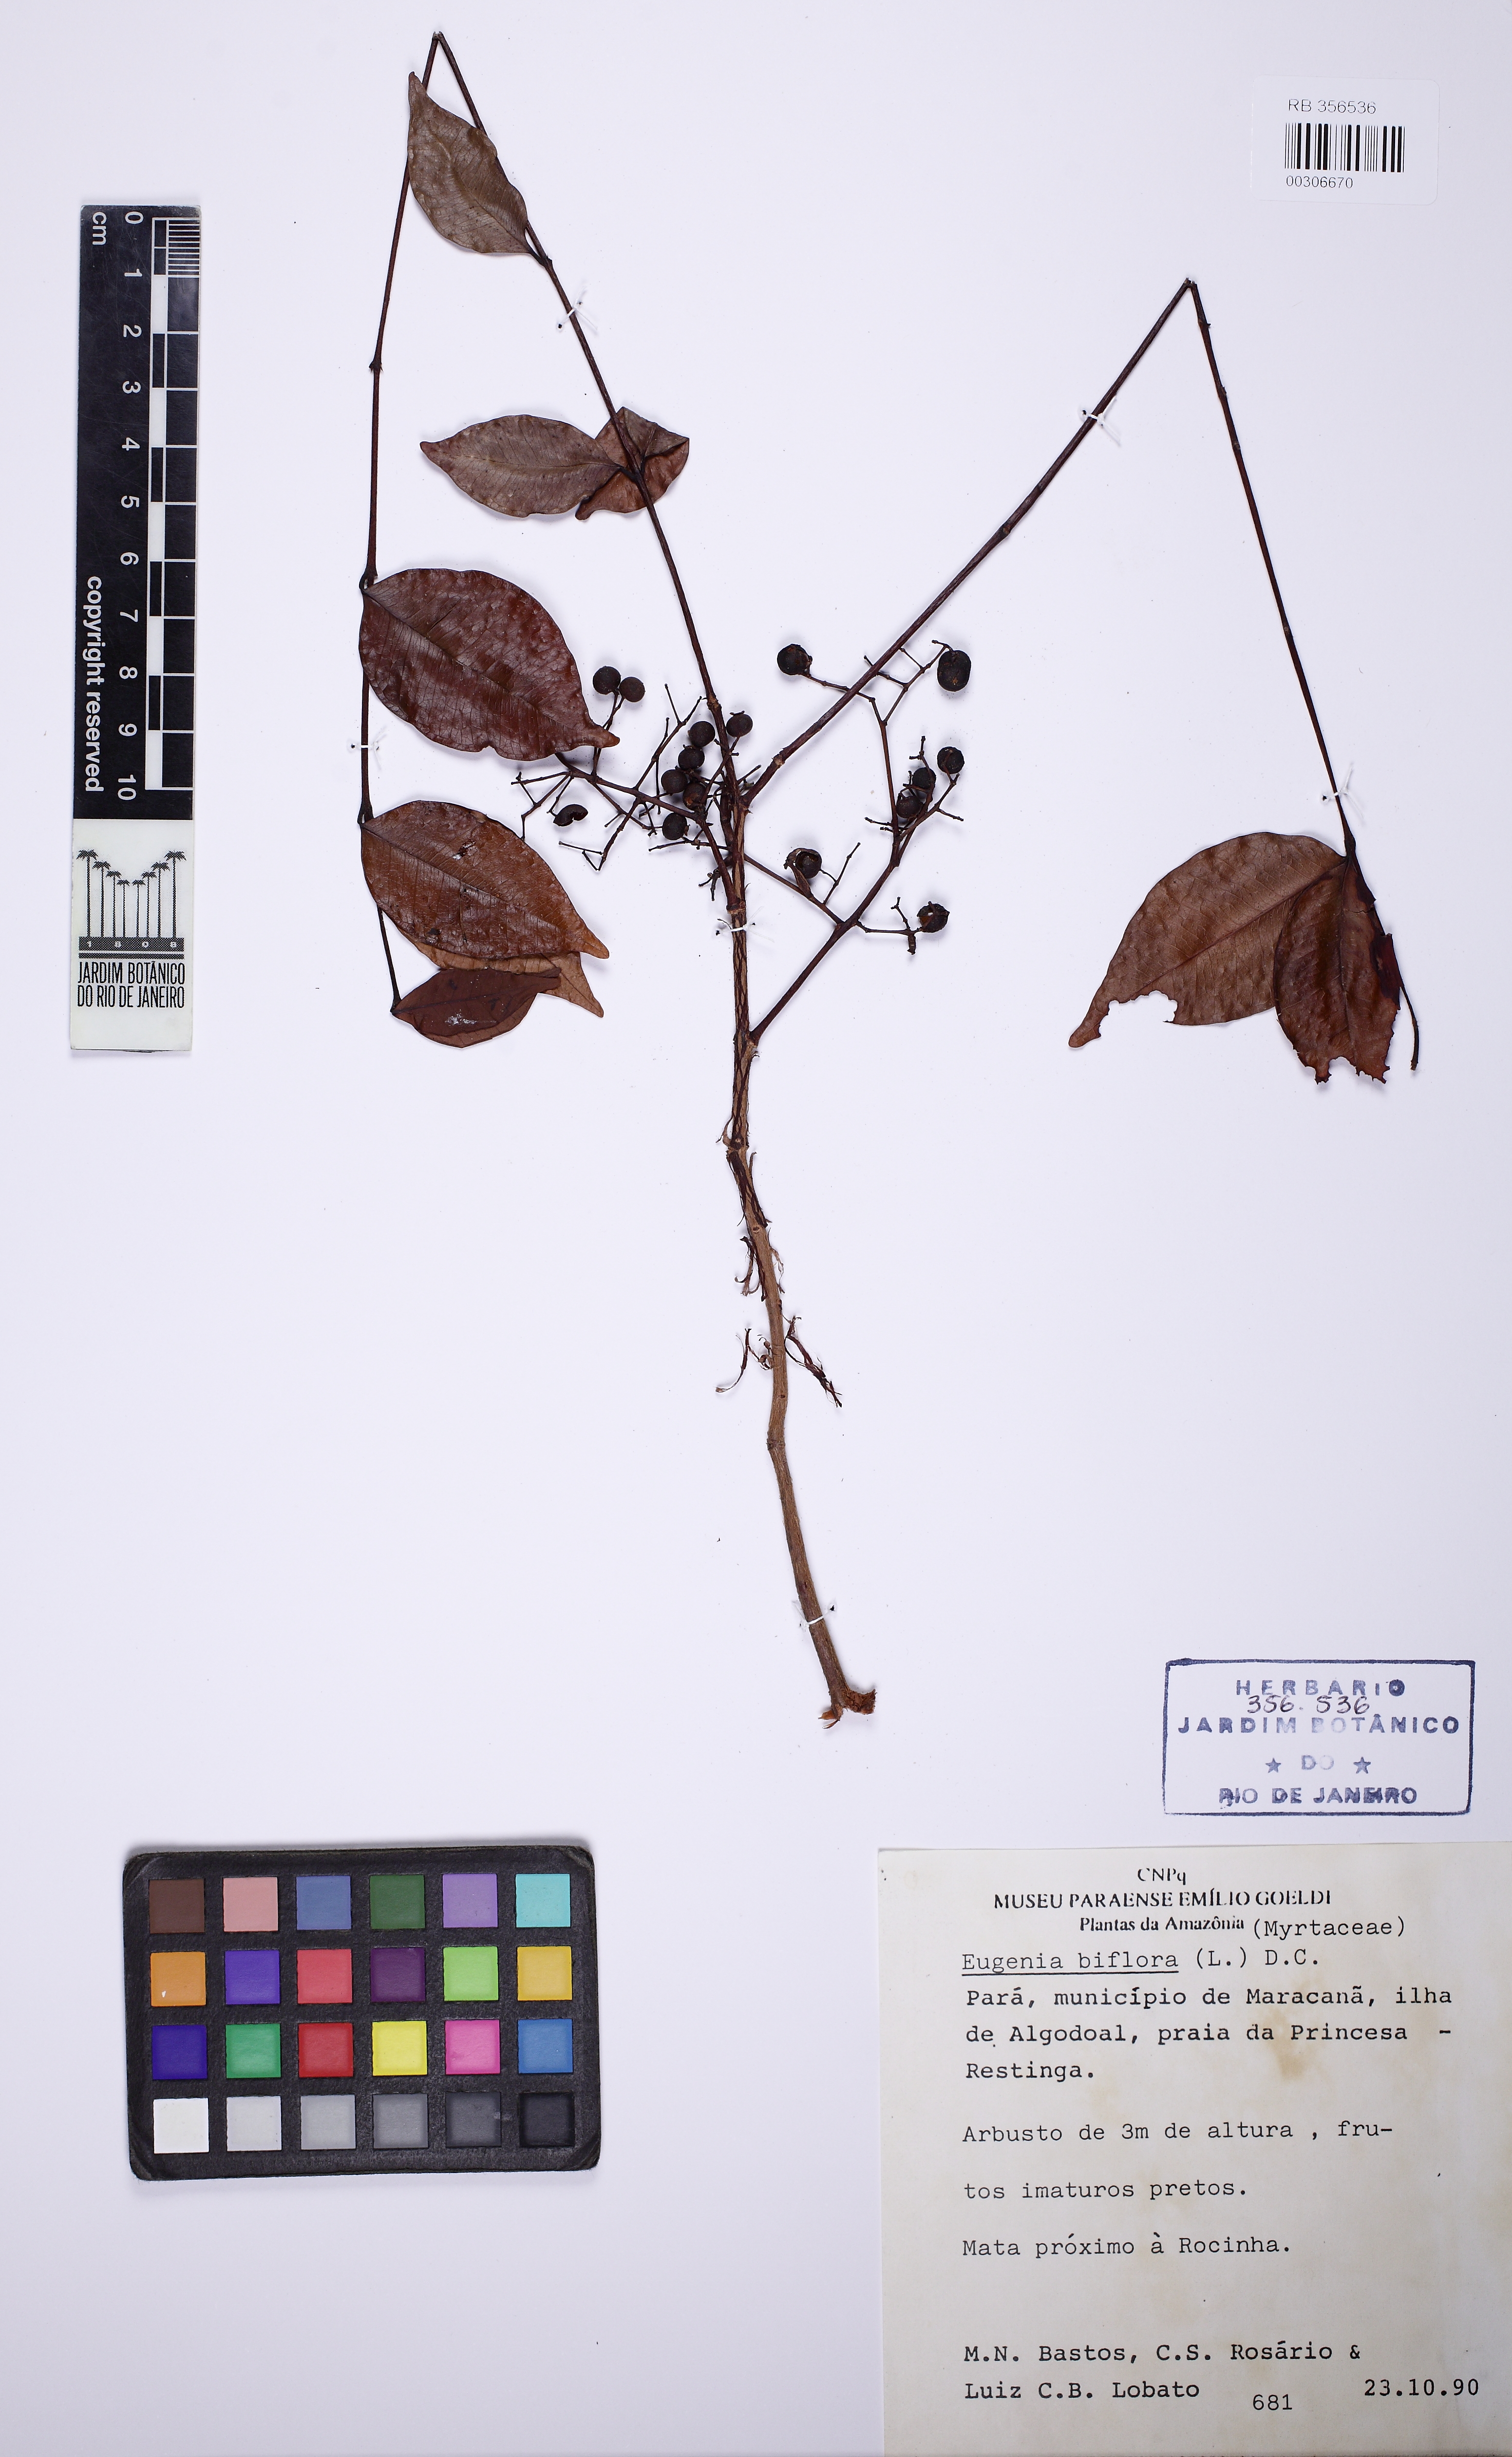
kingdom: Plantae
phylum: Tracheophyta
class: Magnoliopsida
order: Myrtales
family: Myrtaceae
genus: Eugenia
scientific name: Eugenia biflora
